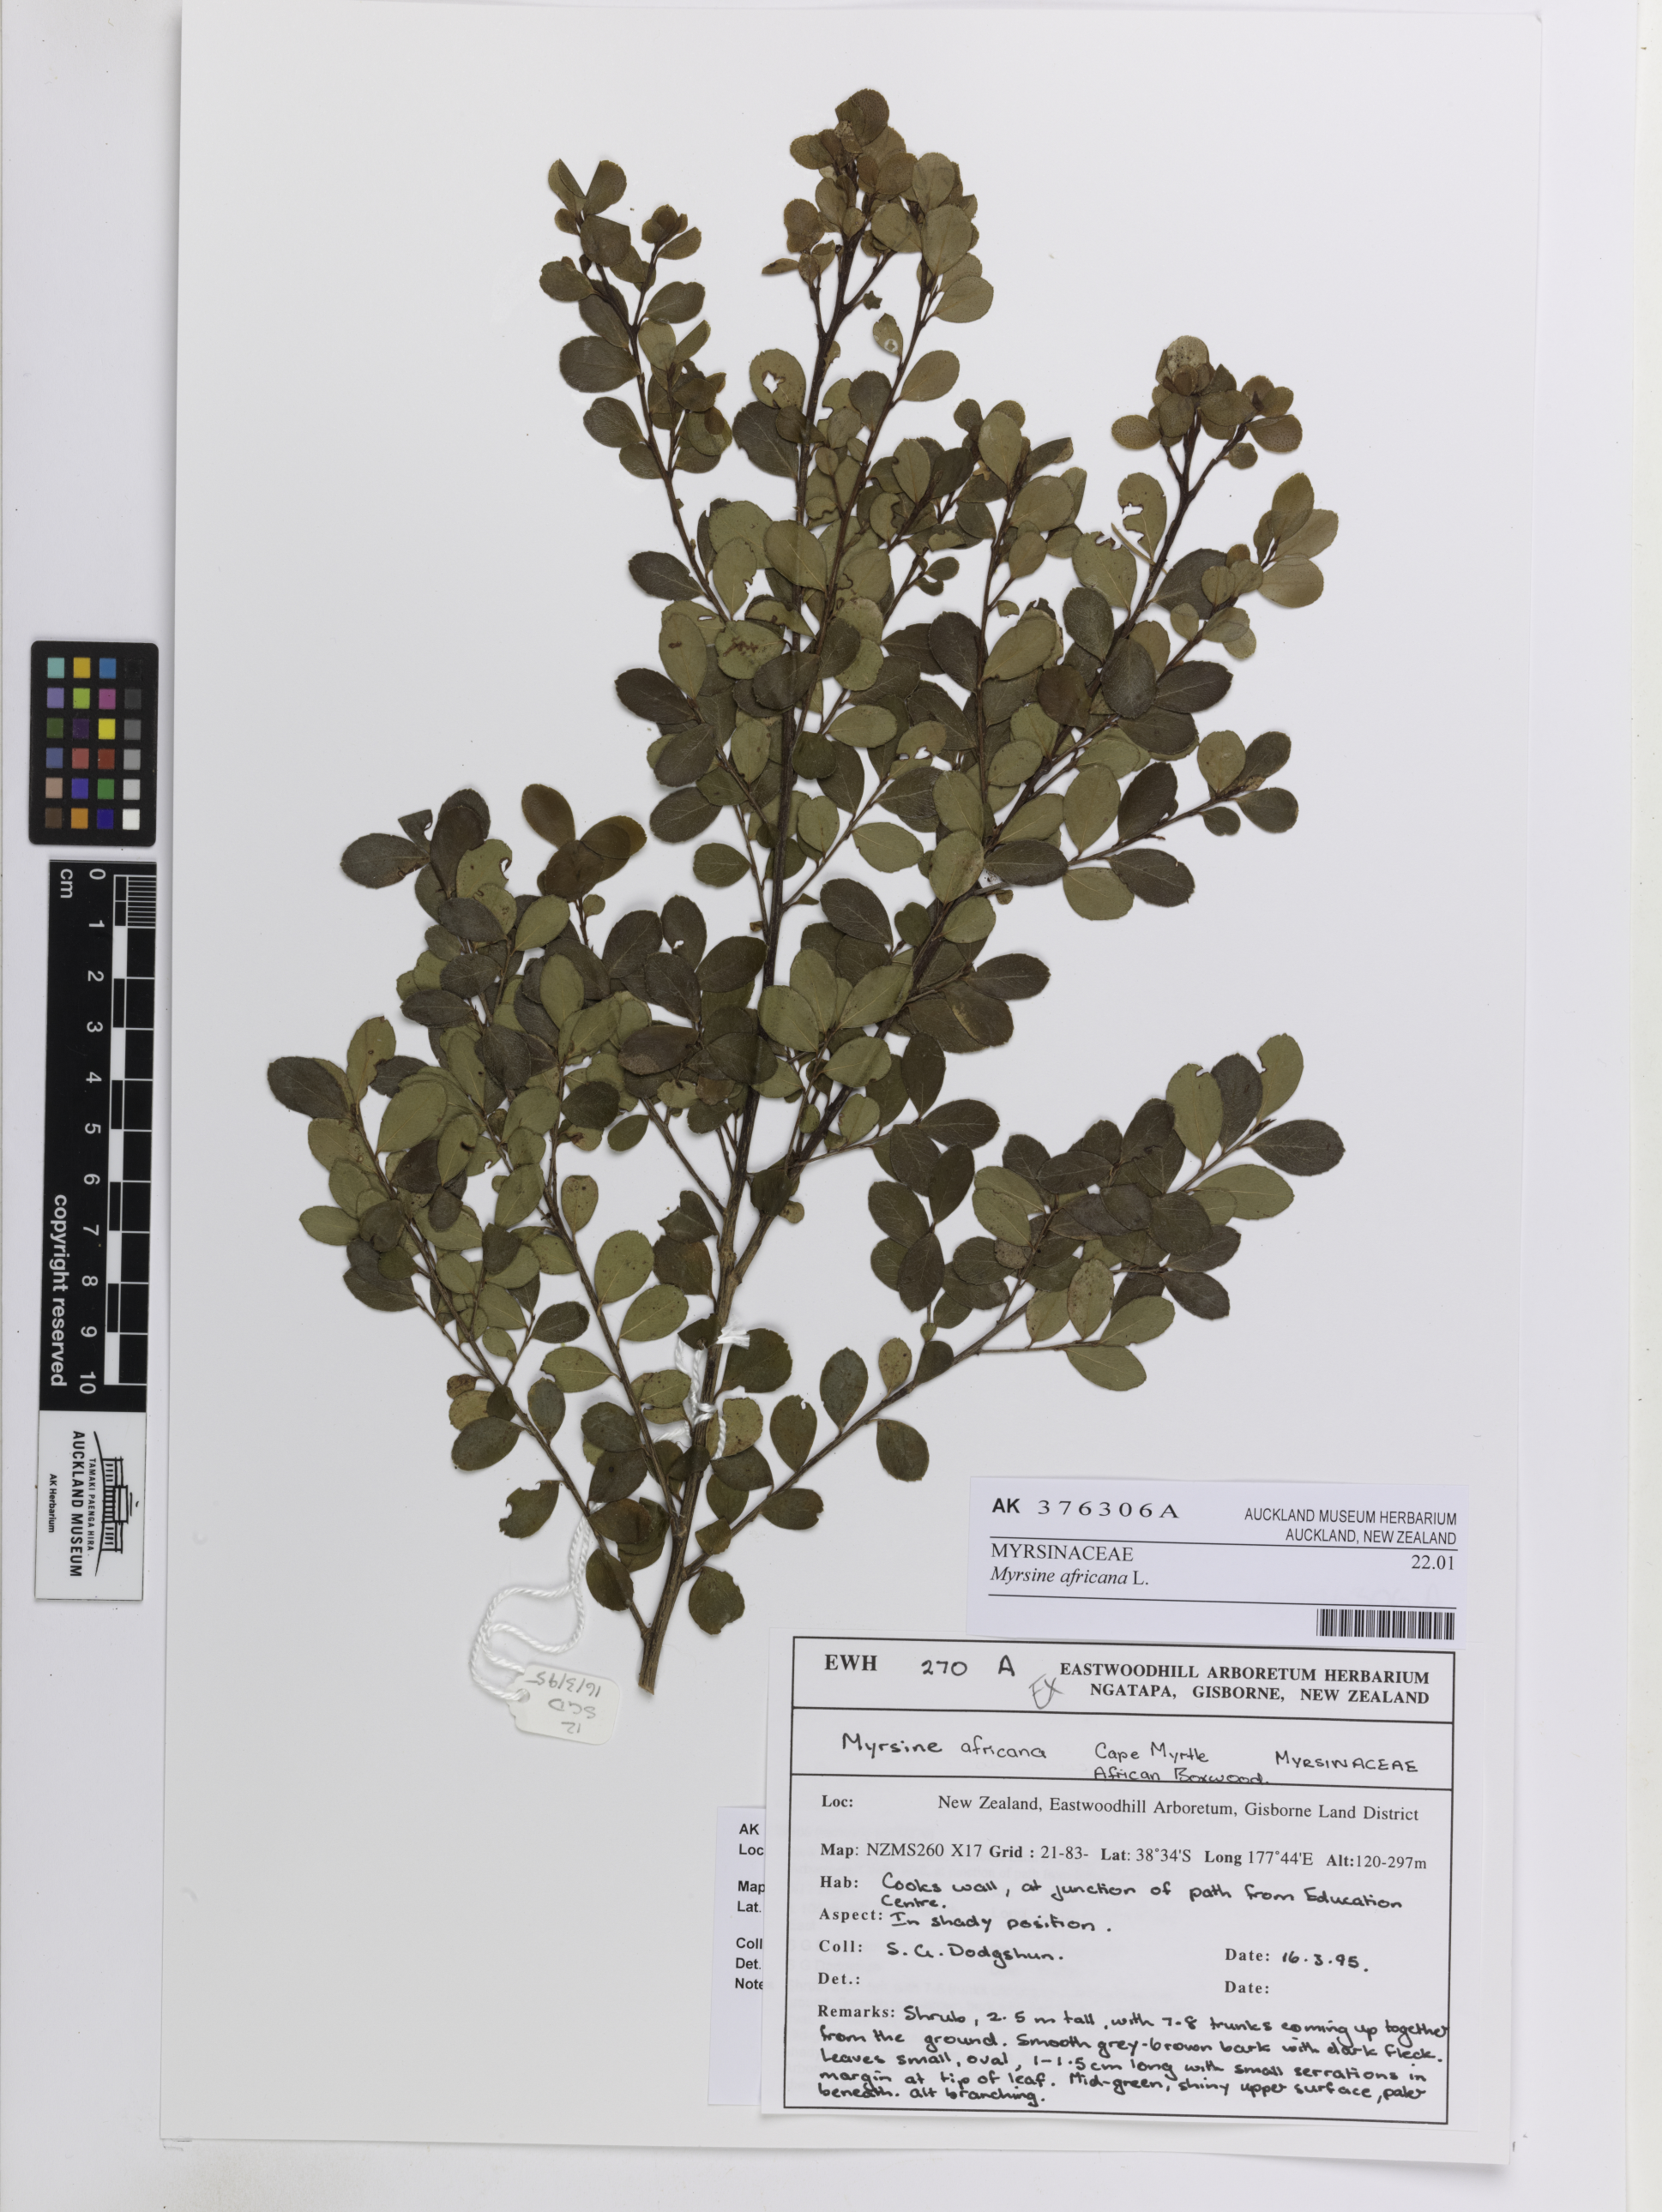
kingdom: Plantae
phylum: Tracheophyta
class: Magnoliopsida
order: Ericales
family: Primulaceae
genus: Myrsine
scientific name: Myrsine africana
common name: African-boxwood
